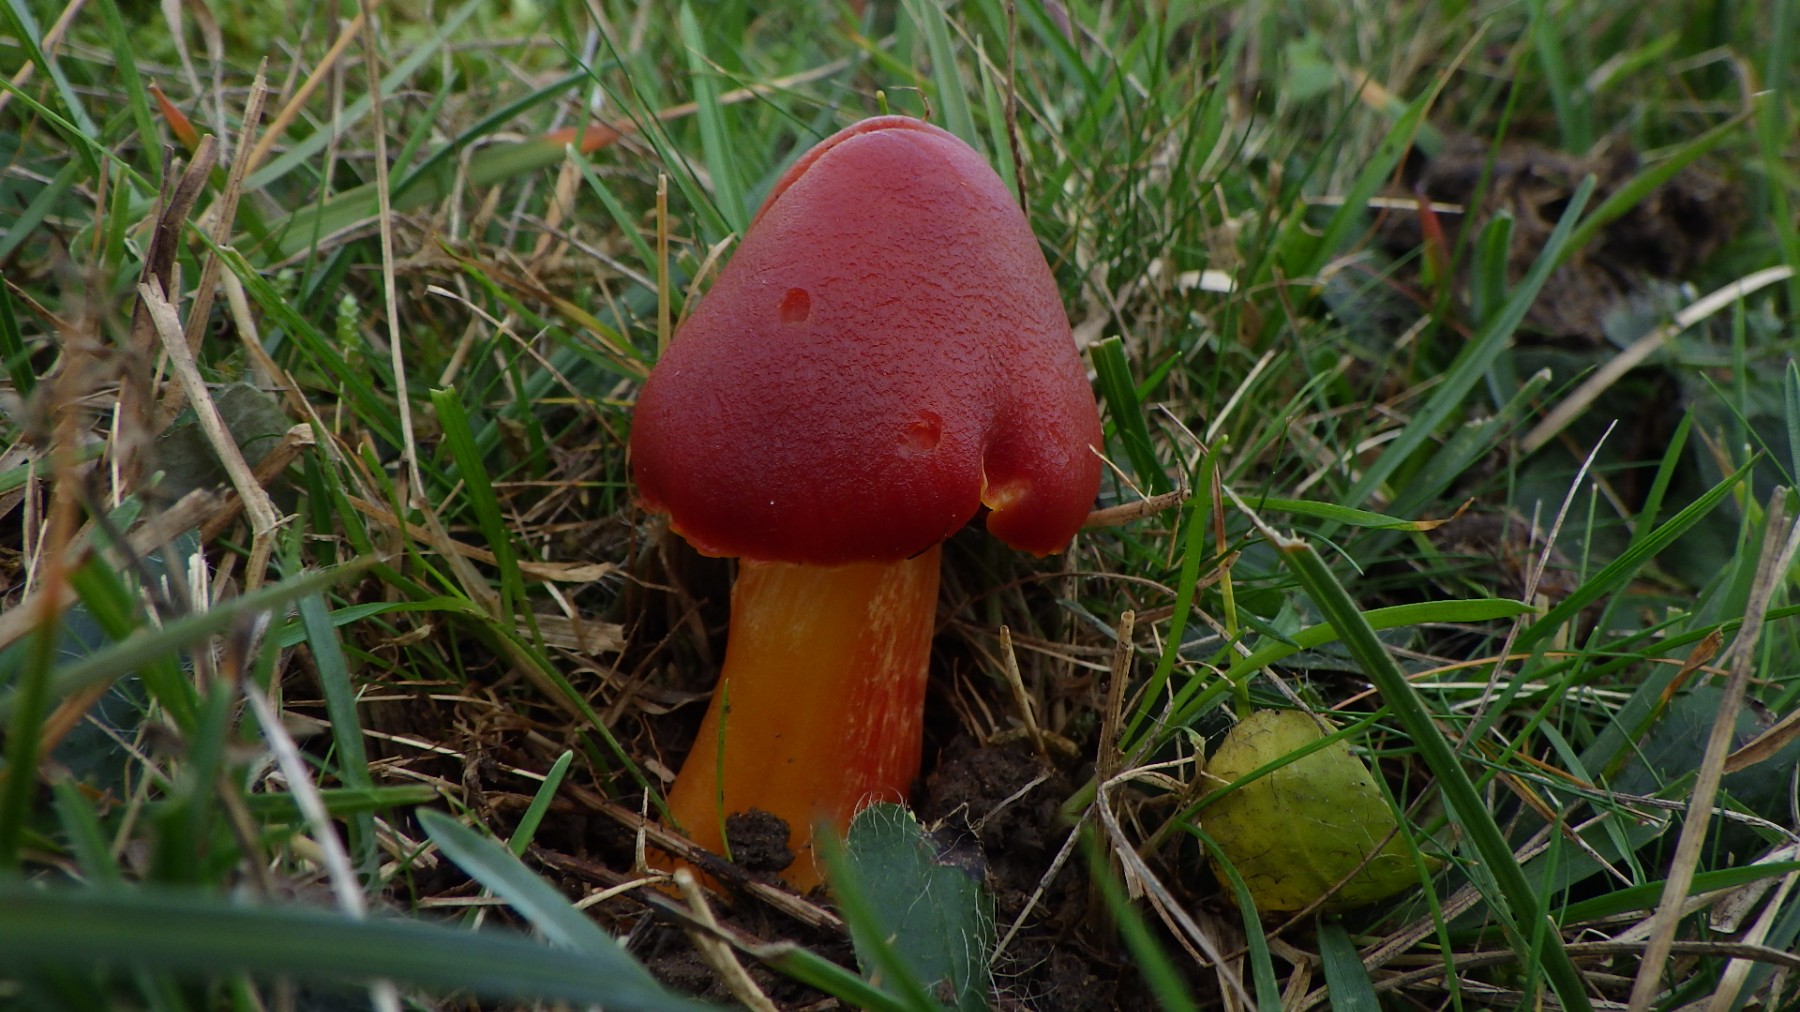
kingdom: Fungi
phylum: Basidiomycota
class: Agaricomycetes
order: Agaricales
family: Hygrophoraceae
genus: Hygrocybe
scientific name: Hygrocybe punicea
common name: skarlagen-vokshat
